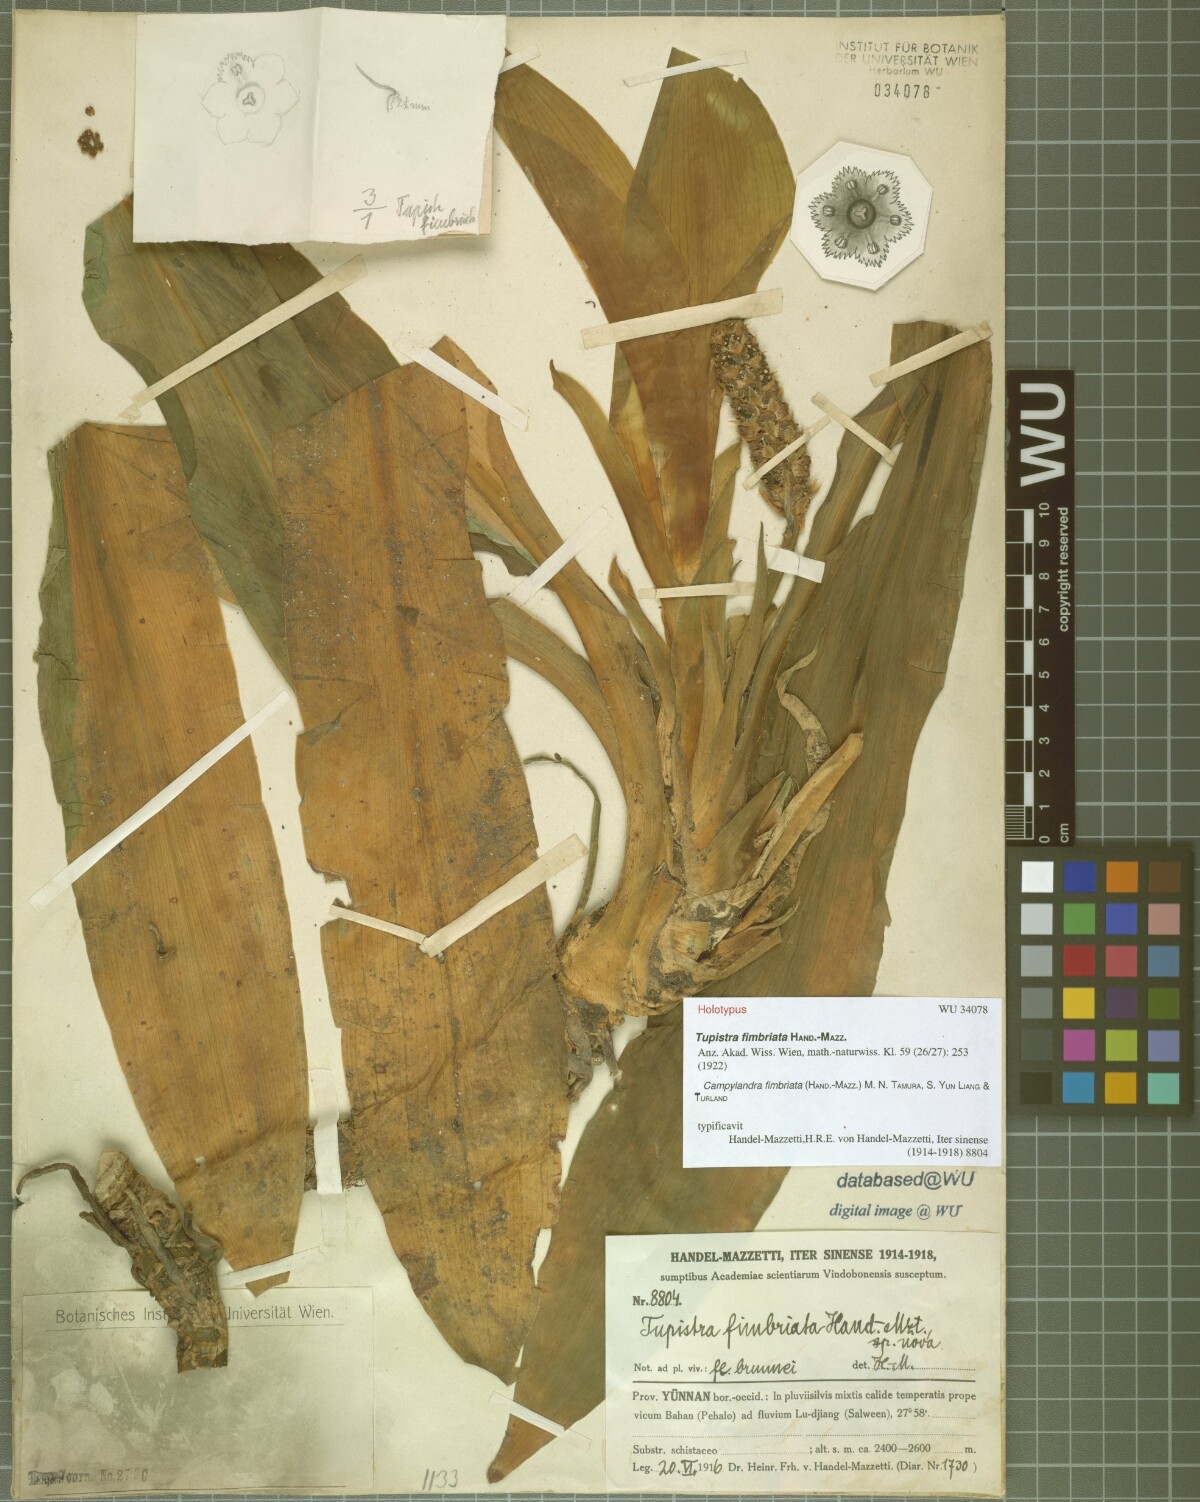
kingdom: Plantae
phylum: Tracheophyta
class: Liliopsida
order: Asparagales
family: Asparagaceae
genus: Rohdea
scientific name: Rohdea delavayi
